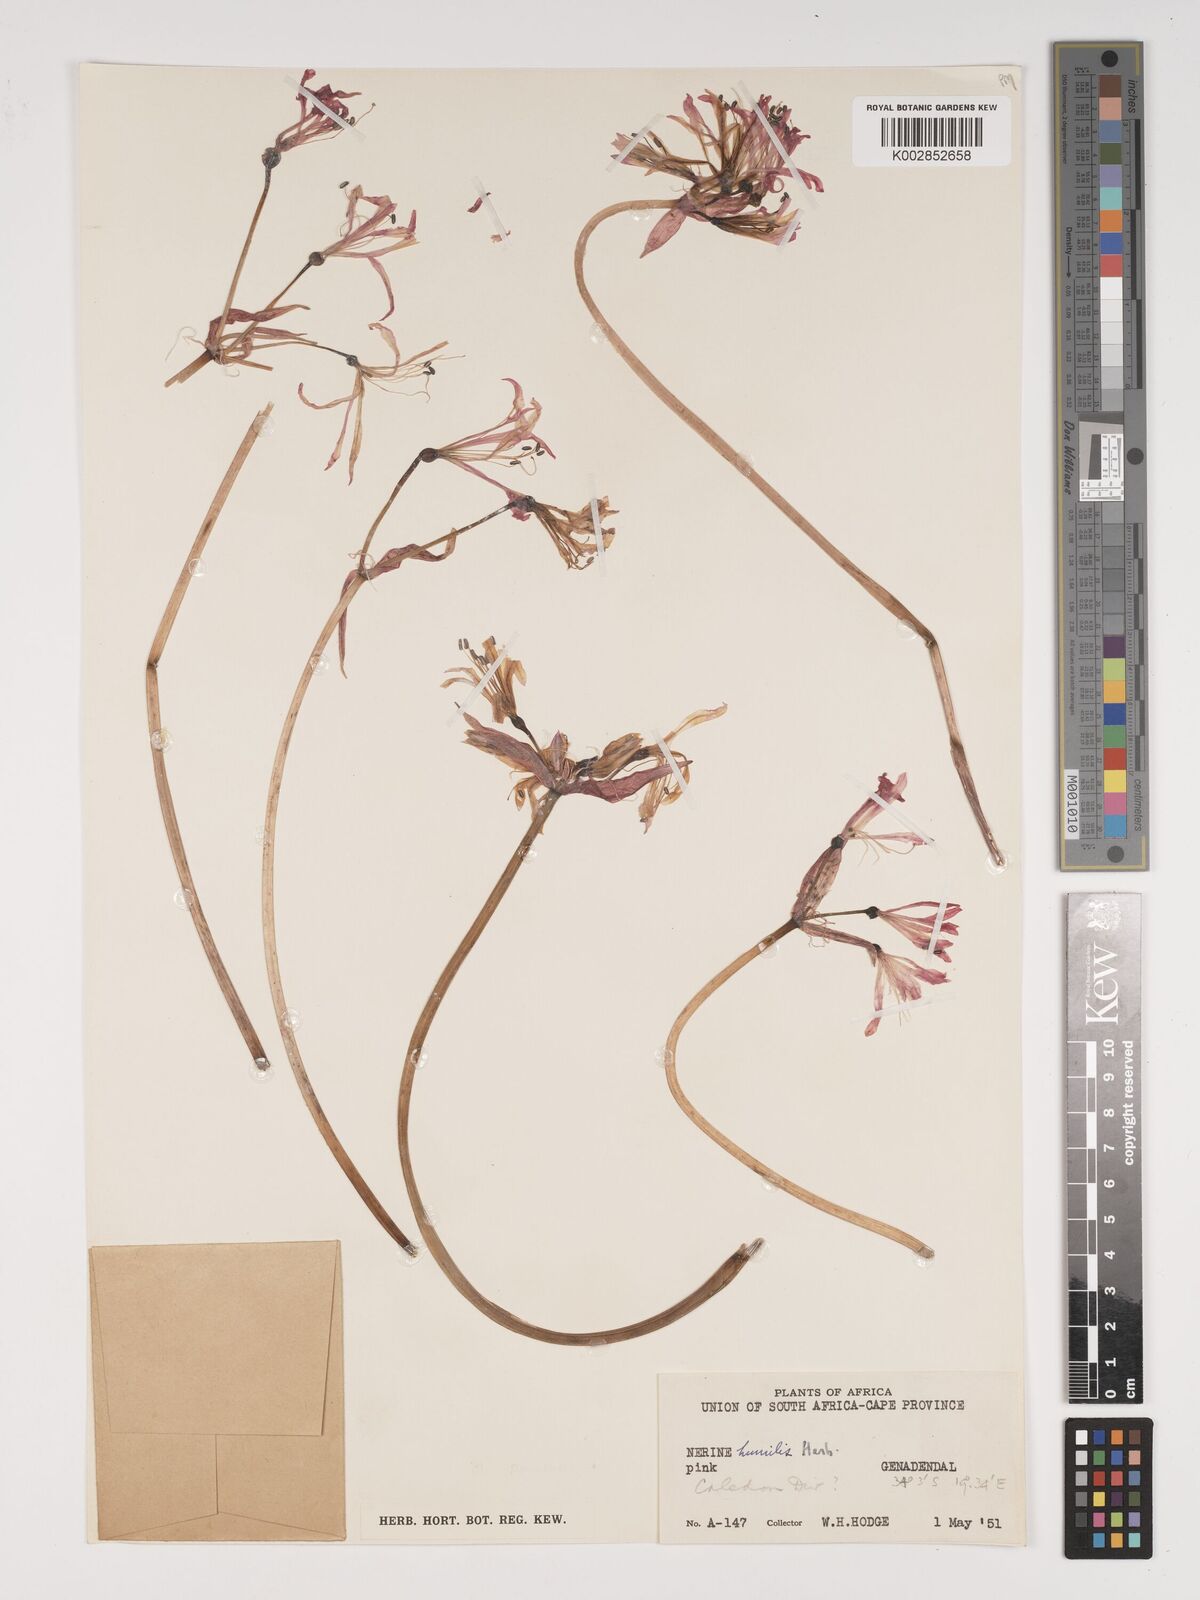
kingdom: Plantae
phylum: Tracheophyta
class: Liliopsida
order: Asparagales
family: Amaryllidaceae
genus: Nerine
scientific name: Nerine humilis
